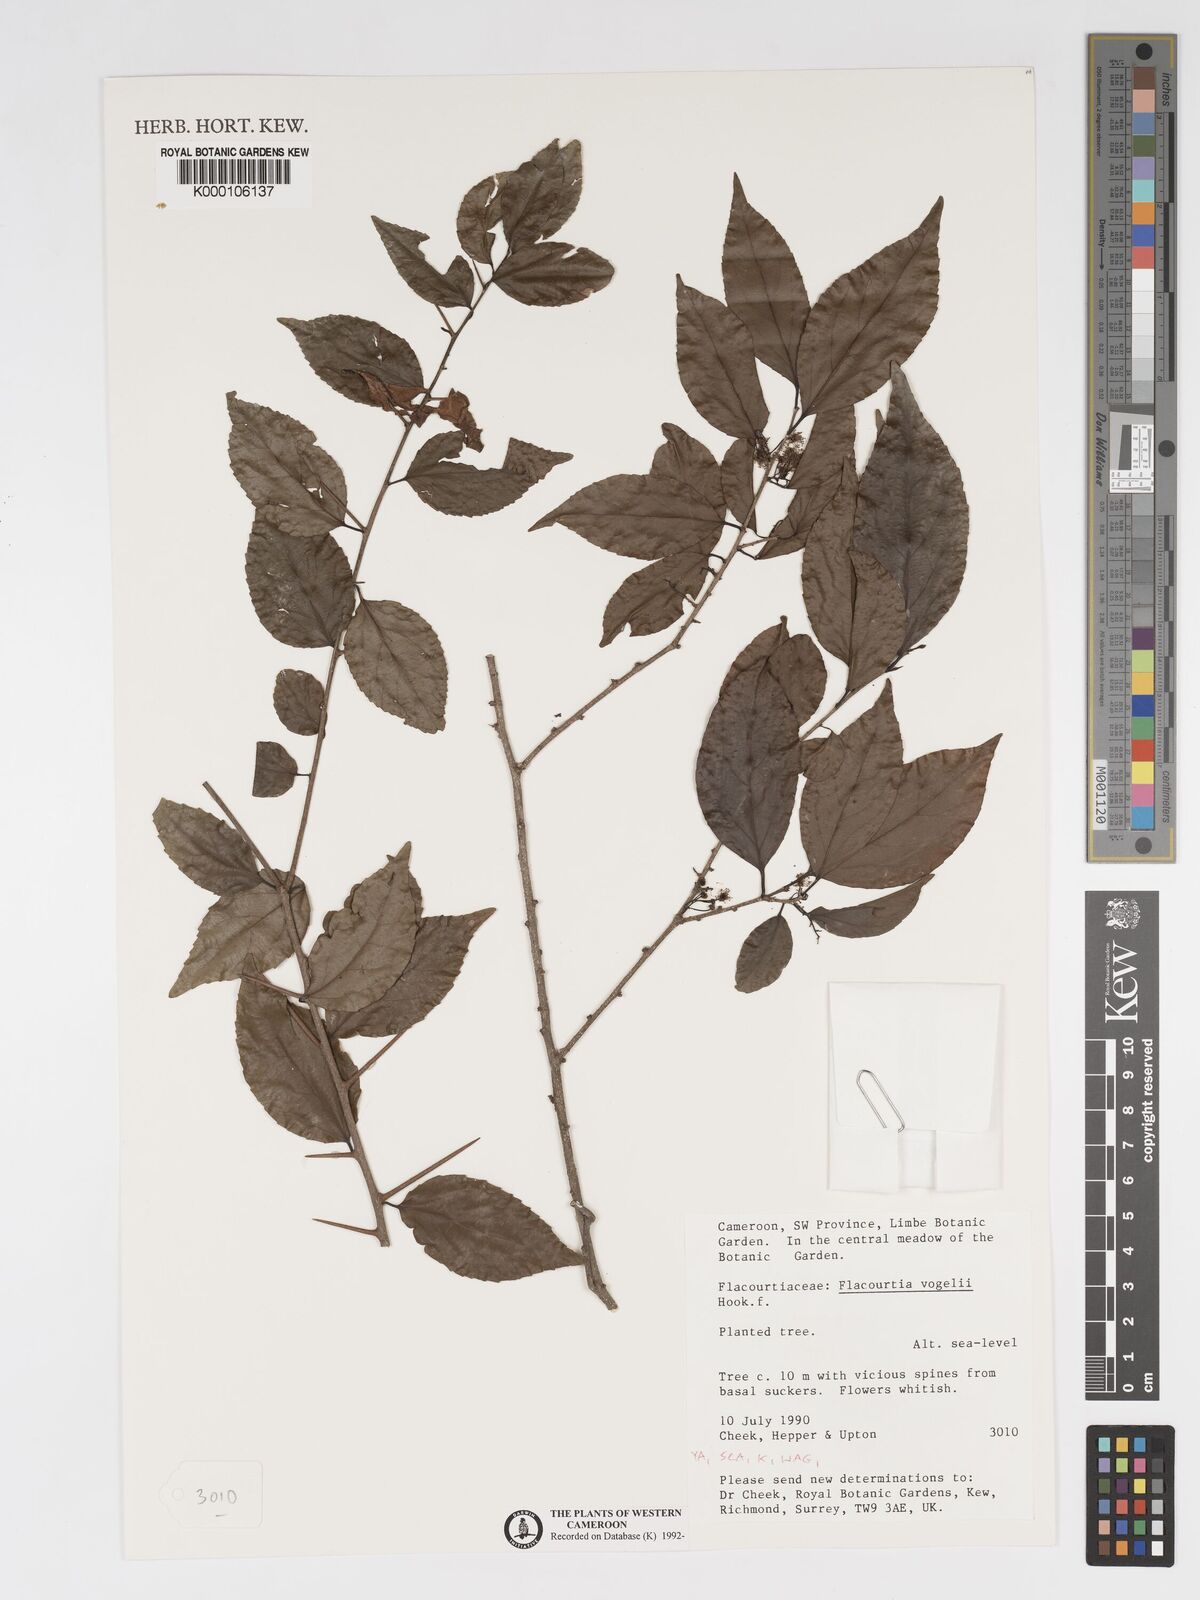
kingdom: Plantae
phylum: Tracheophyta
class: Magnoliopsida
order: Malpighiales
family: Salicaceae
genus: Flacourtia
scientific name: Flacourtia vogelii
